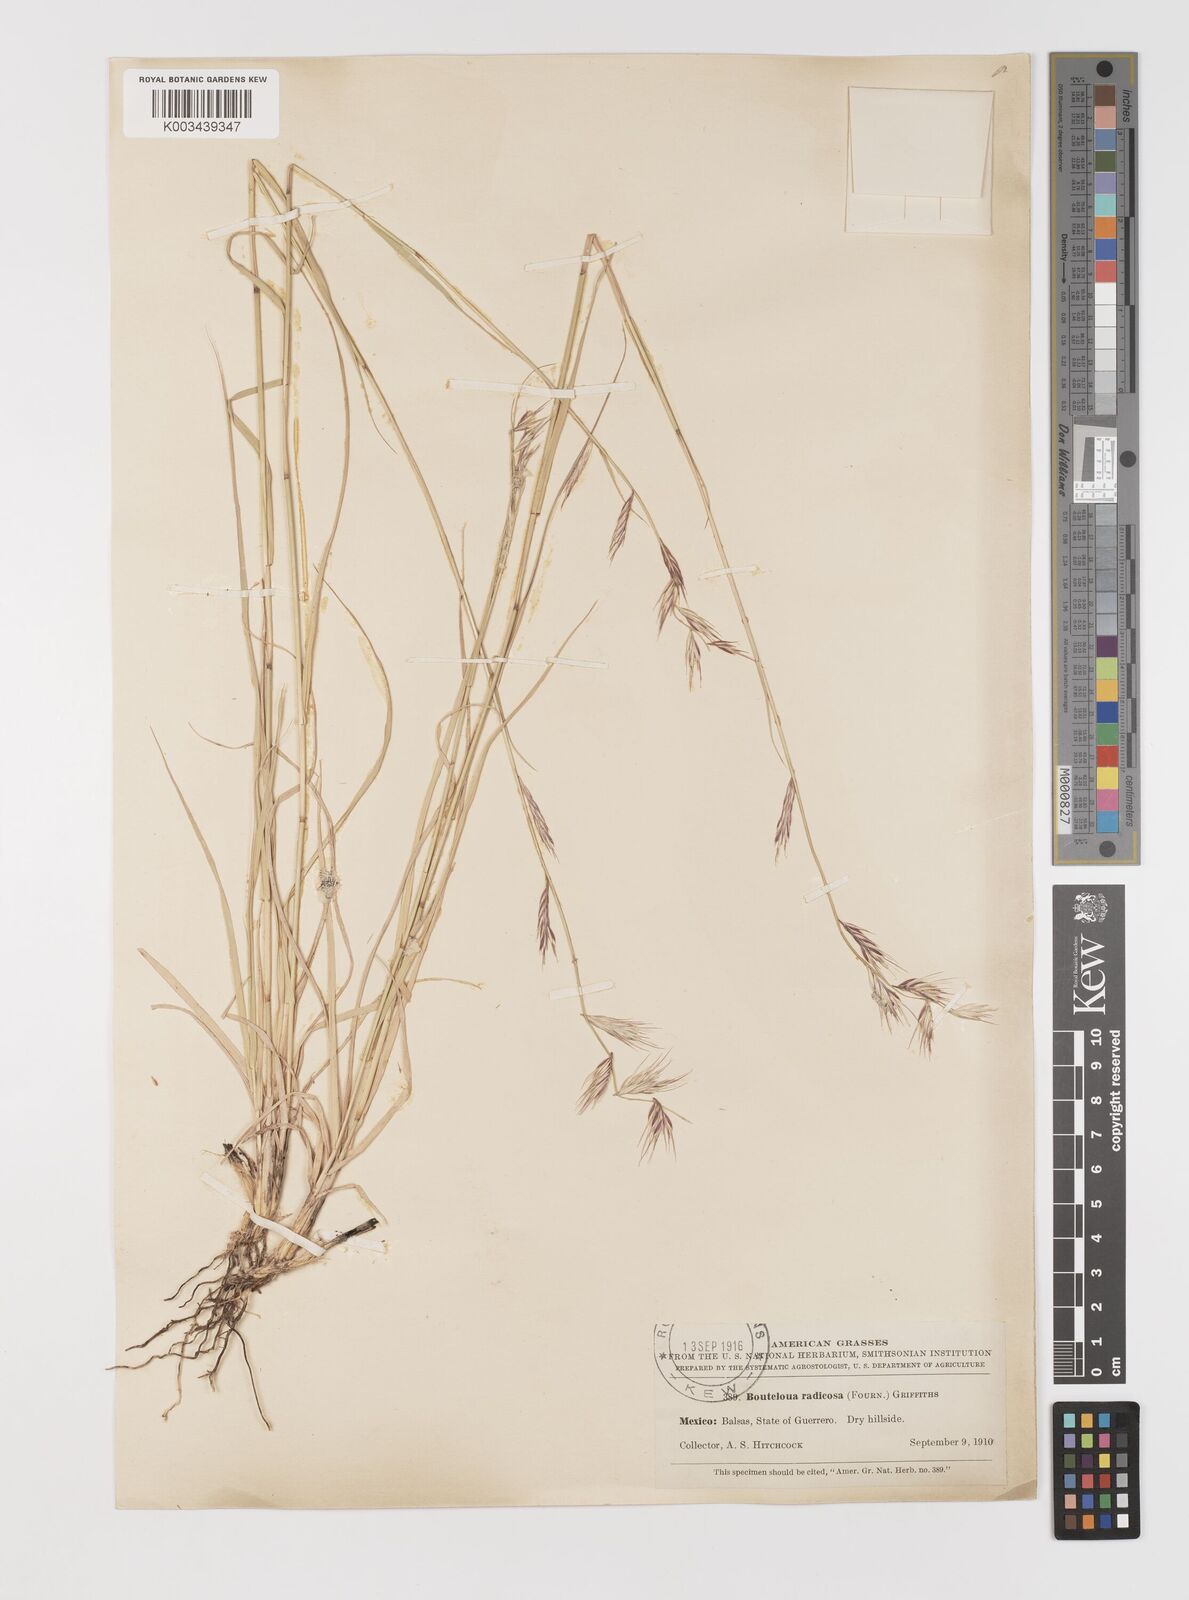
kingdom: Plantae
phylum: Tracheophyta
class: Liliopsida
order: Poales
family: Poaceae
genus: Bouteloua
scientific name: Bouteloua radicosa
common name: Purple grama
